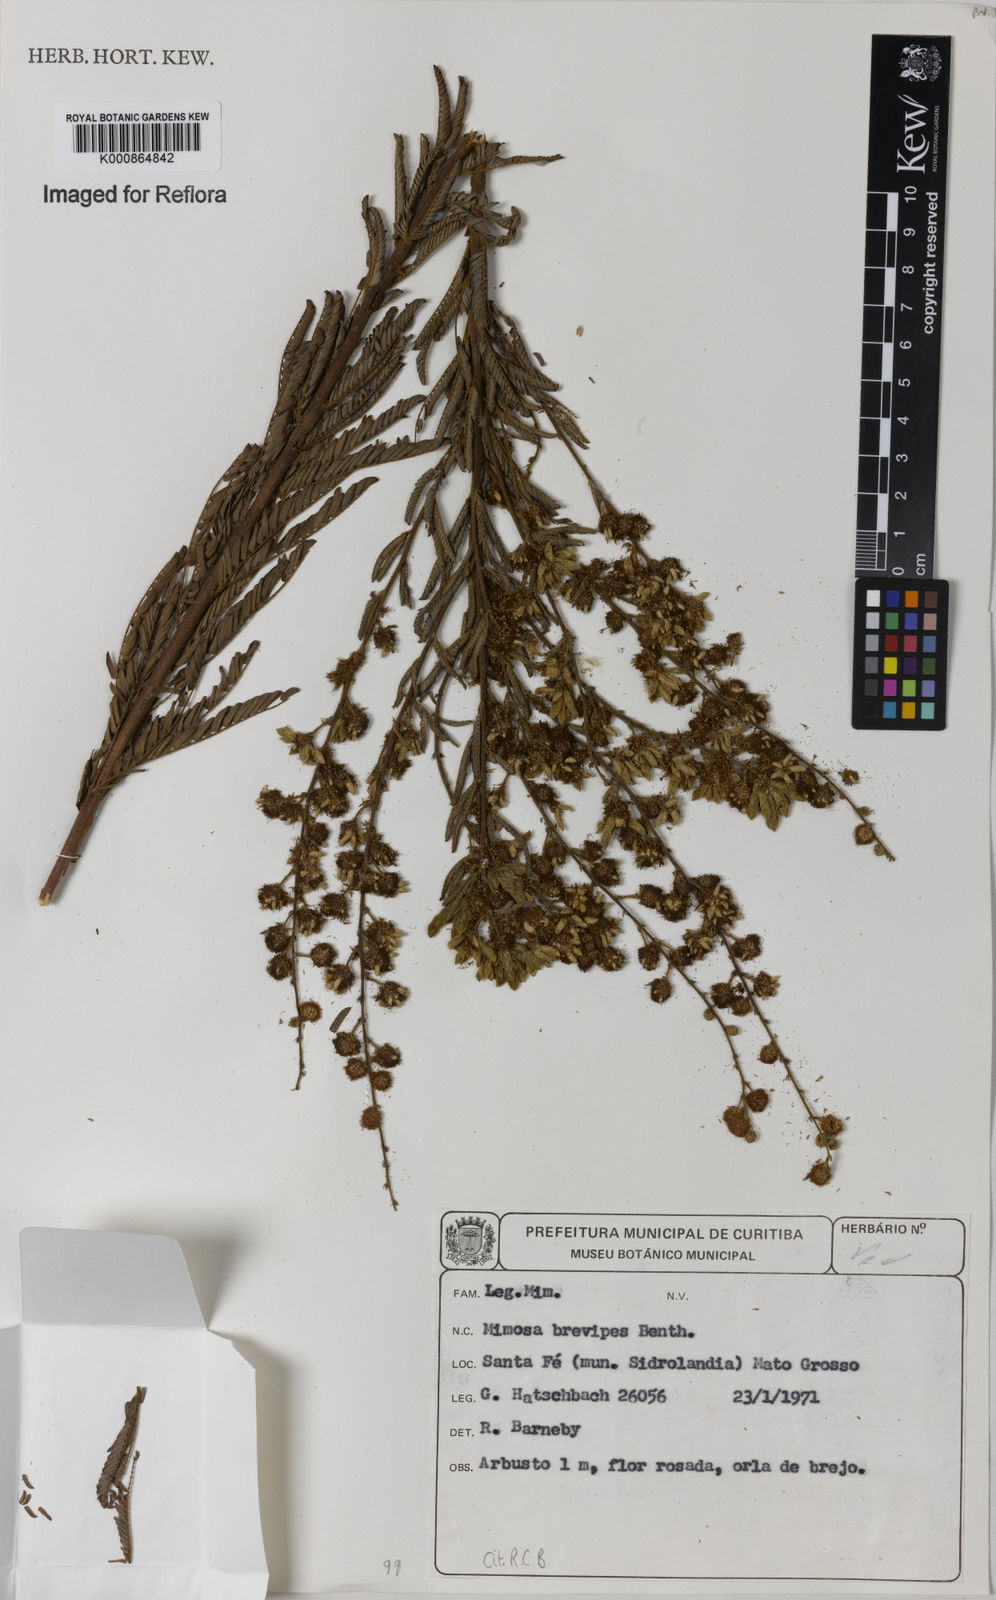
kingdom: Plantae
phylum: Tracheophyta
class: Magnoliopsida
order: Fabales
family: Fabaceae
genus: Mimosa
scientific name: Mimosa brevipes
